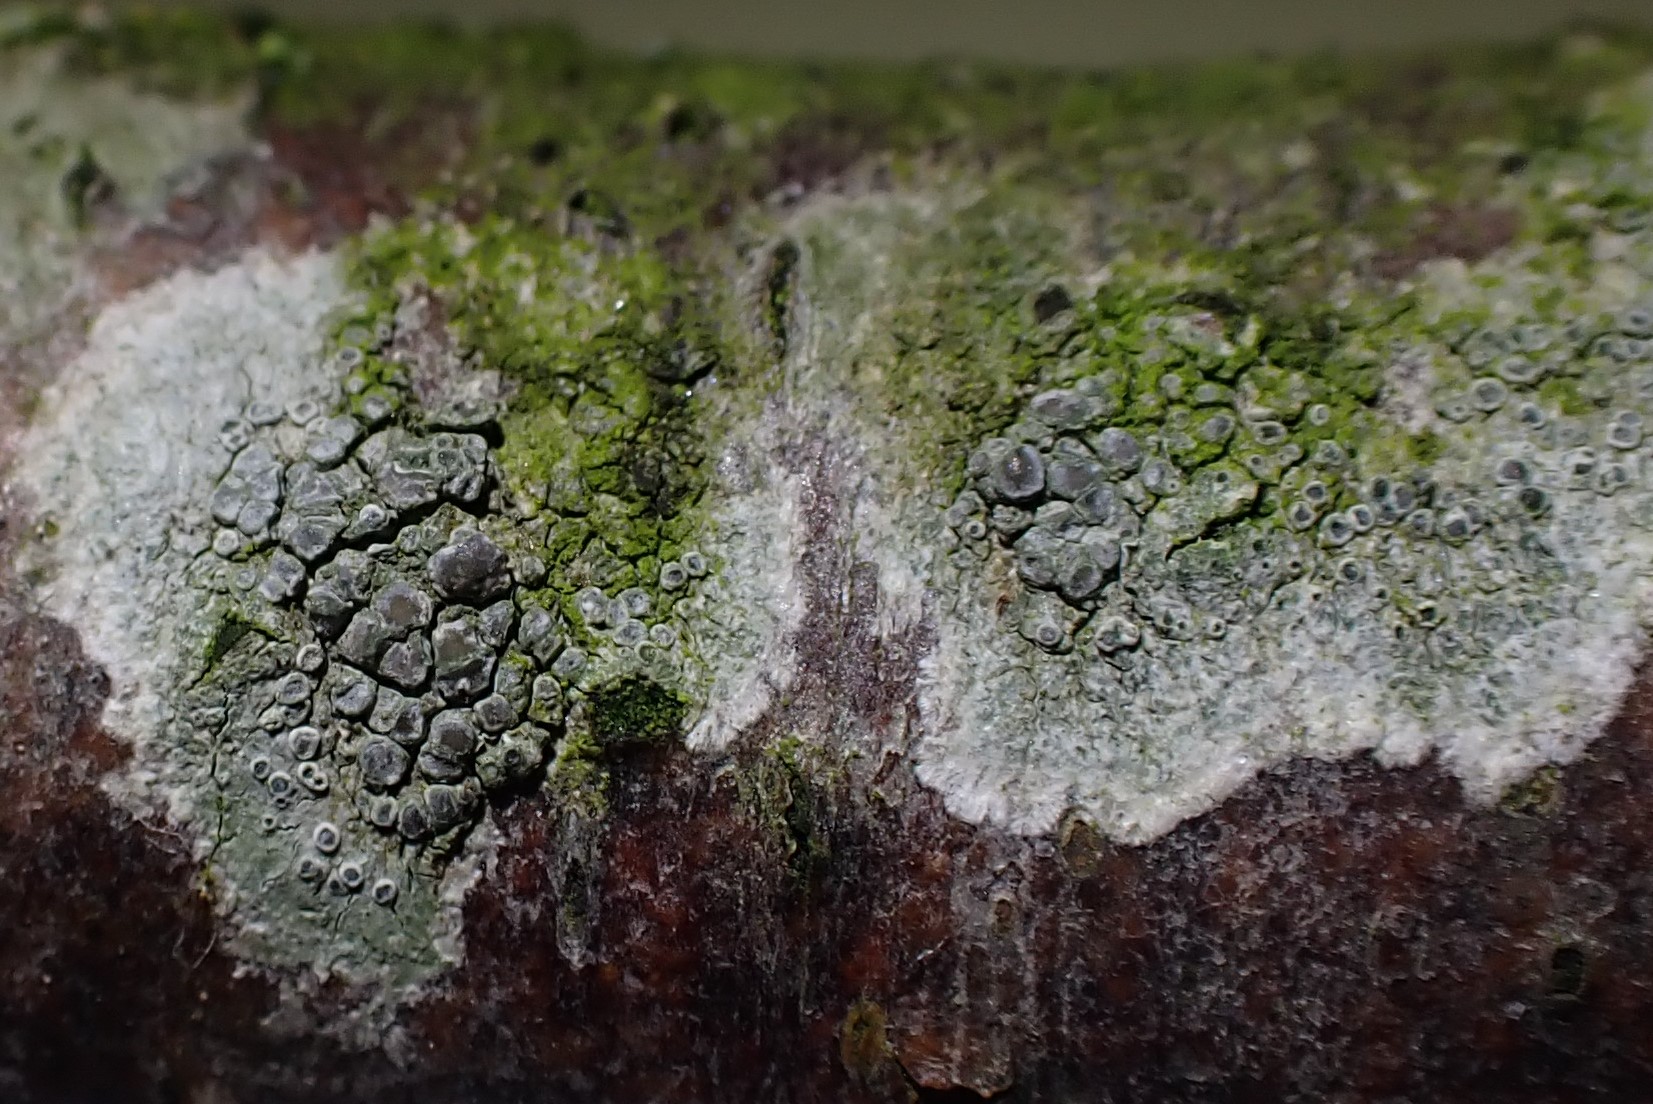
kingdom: Fungi
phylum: Ascomycota
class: Lecanoromycetes
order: Lecanorales
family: Lecanoraceae
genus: Glaucomaria
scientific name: Glaucomaria carpinea
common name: hviddugget kantskivelav
